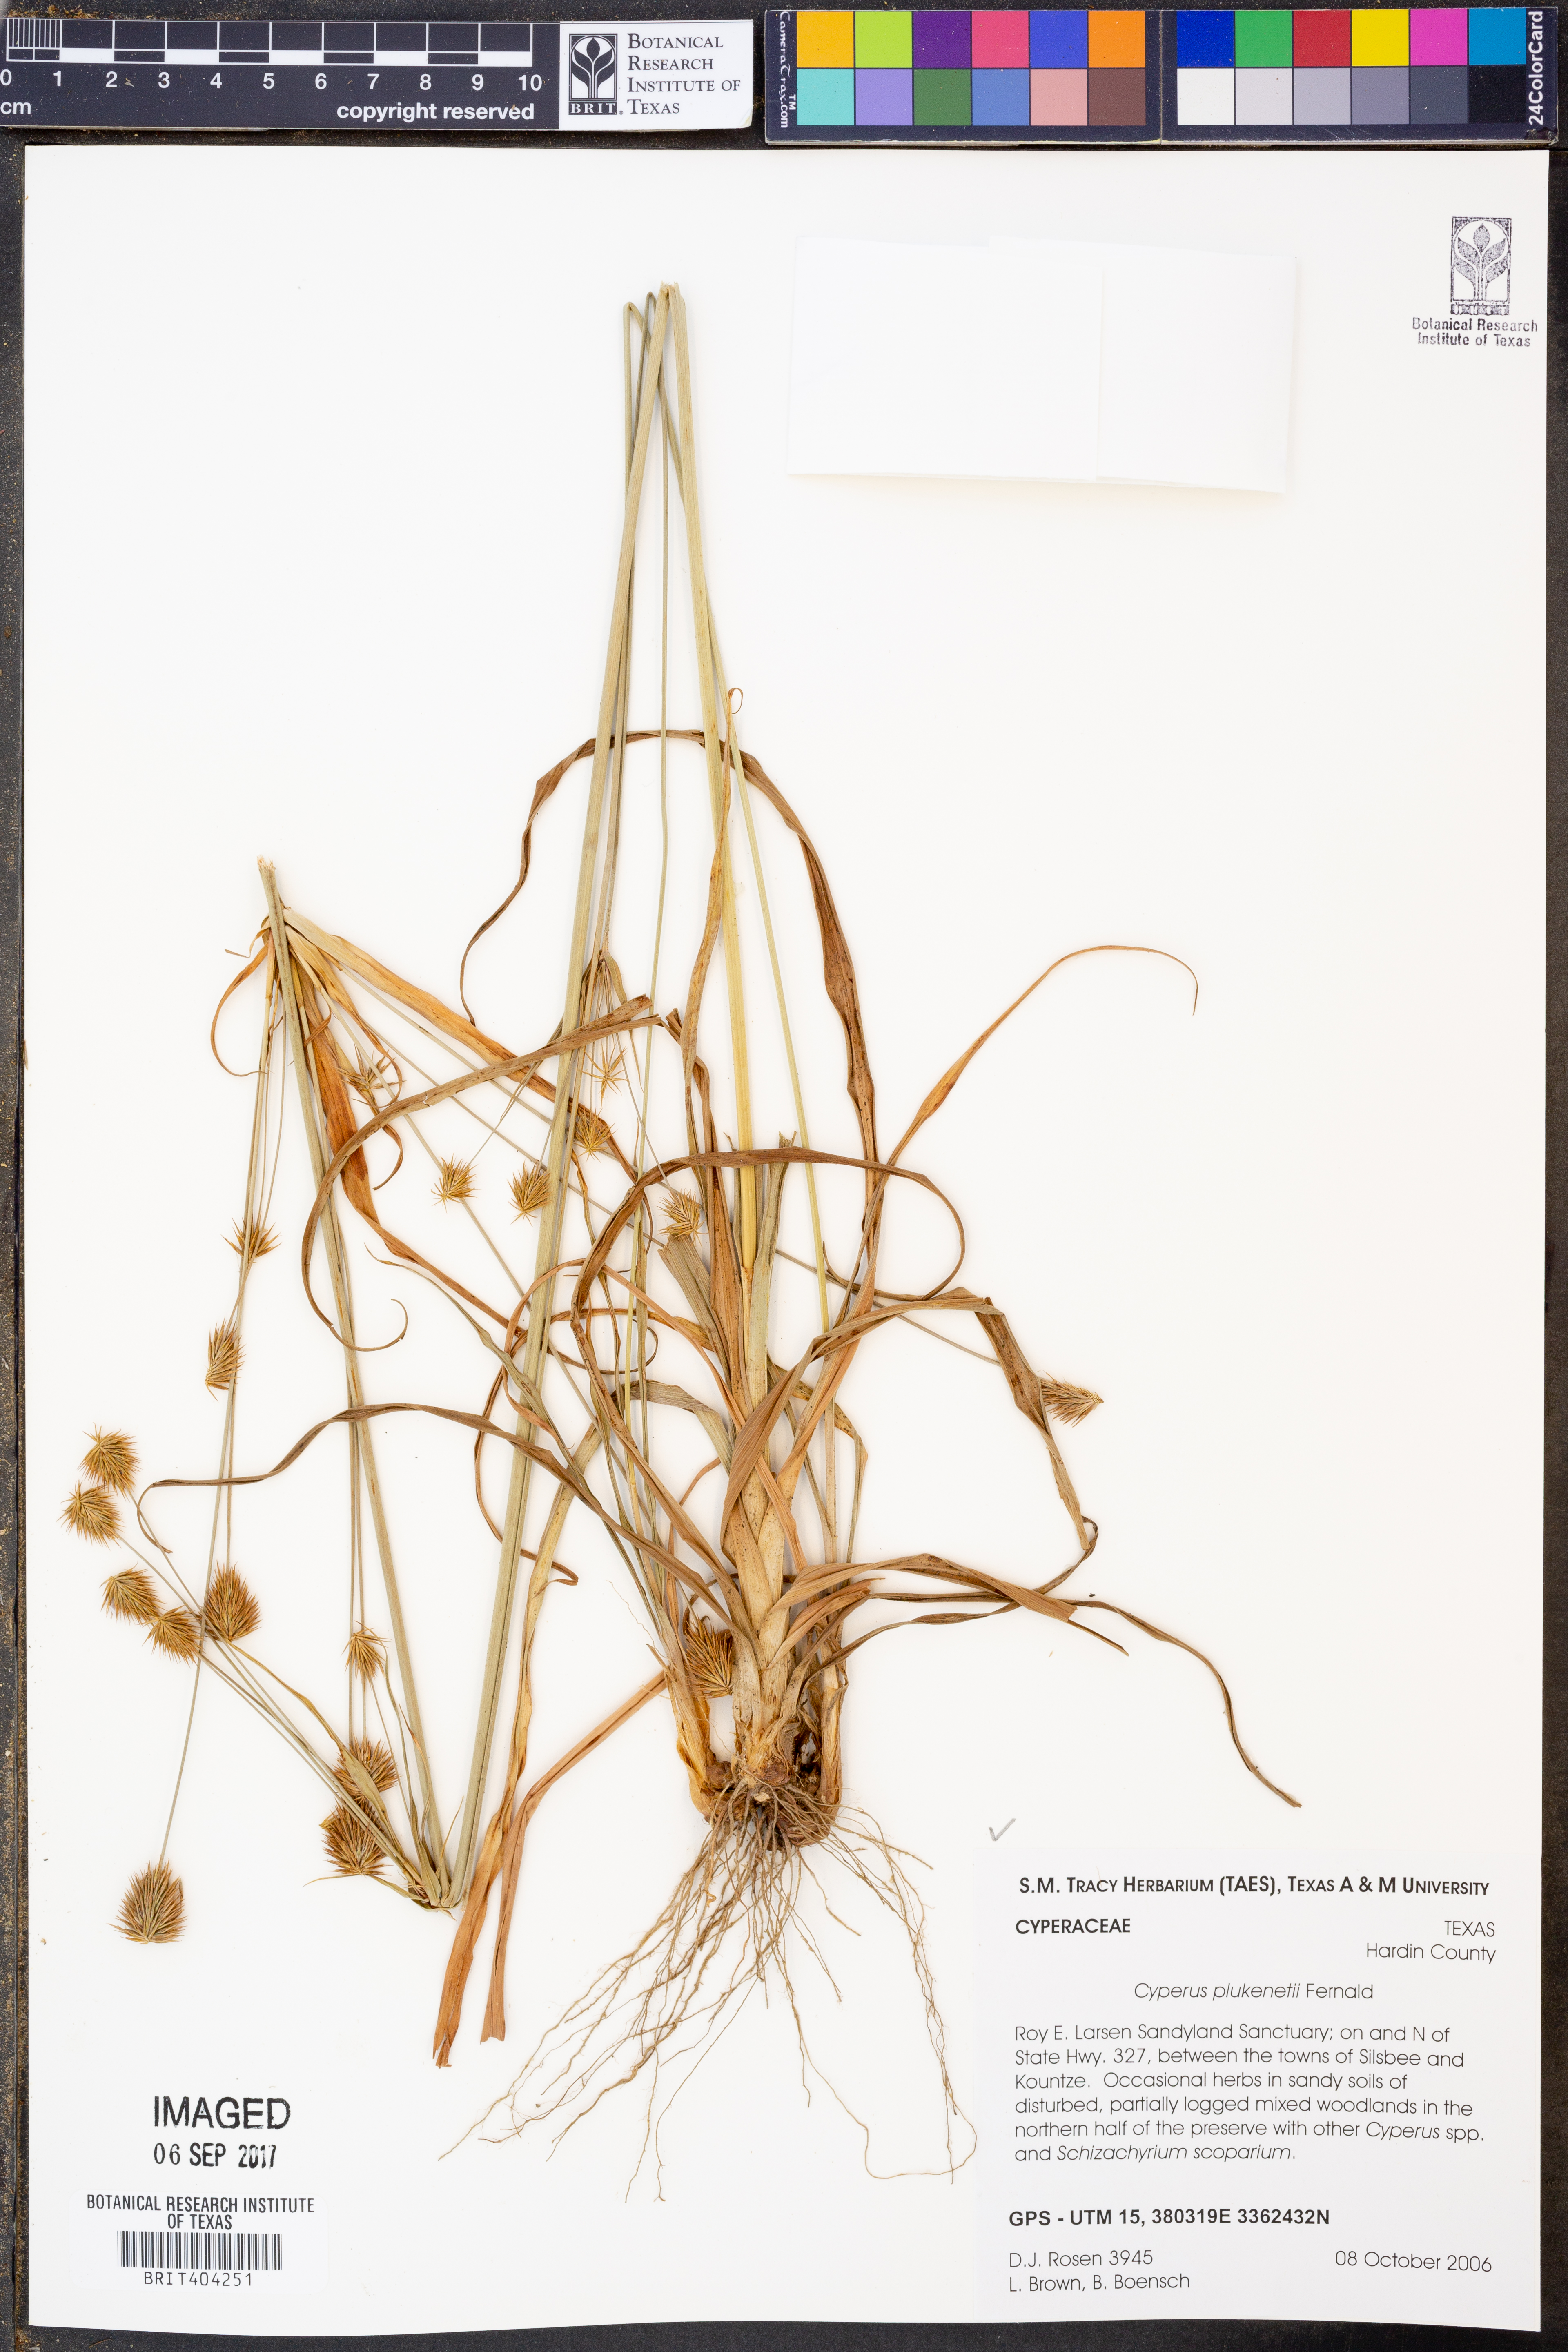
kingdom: Plantae
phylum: Tracheophyta
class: Liliopsida
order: Poales
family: Cyperaceae
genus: Cyperus
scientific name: Cyperus plukenetii
